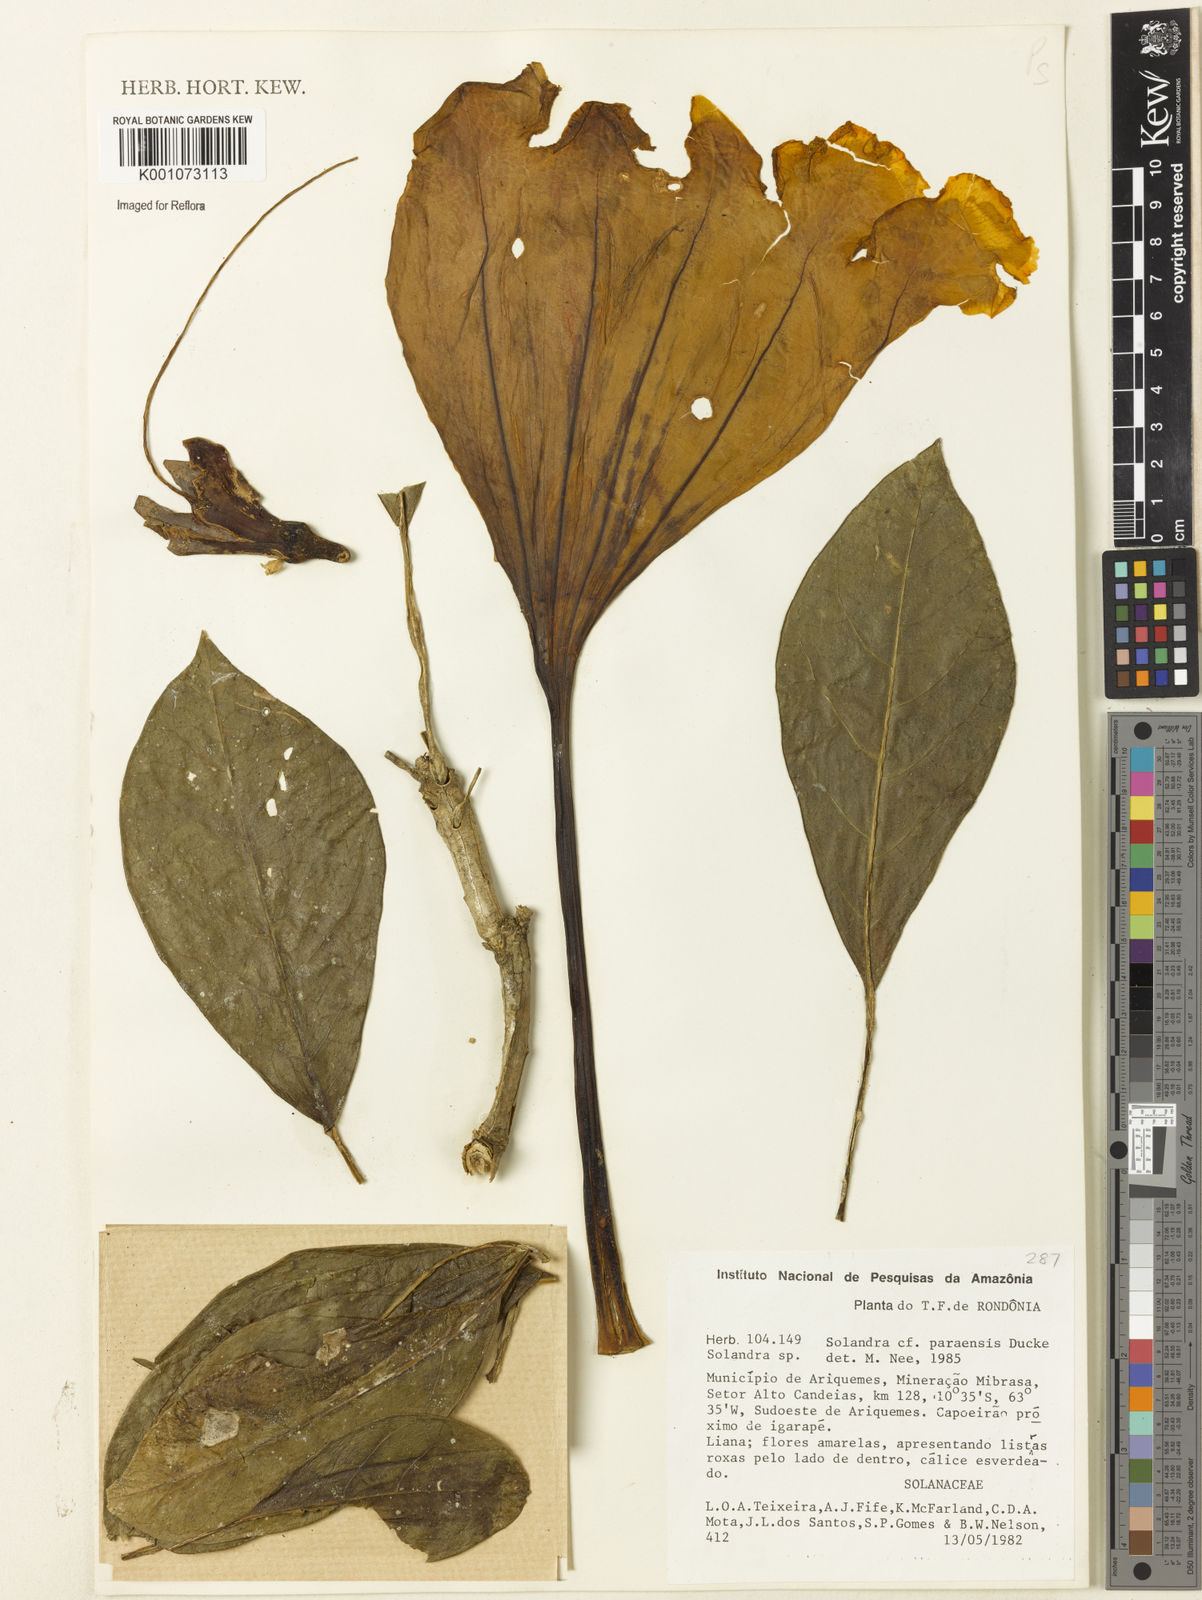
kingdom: Plantae
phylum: Tracheophyta
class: Magnoliopsida
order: Solanales
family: Solanaceae
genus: Solandra
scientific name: Solandra
